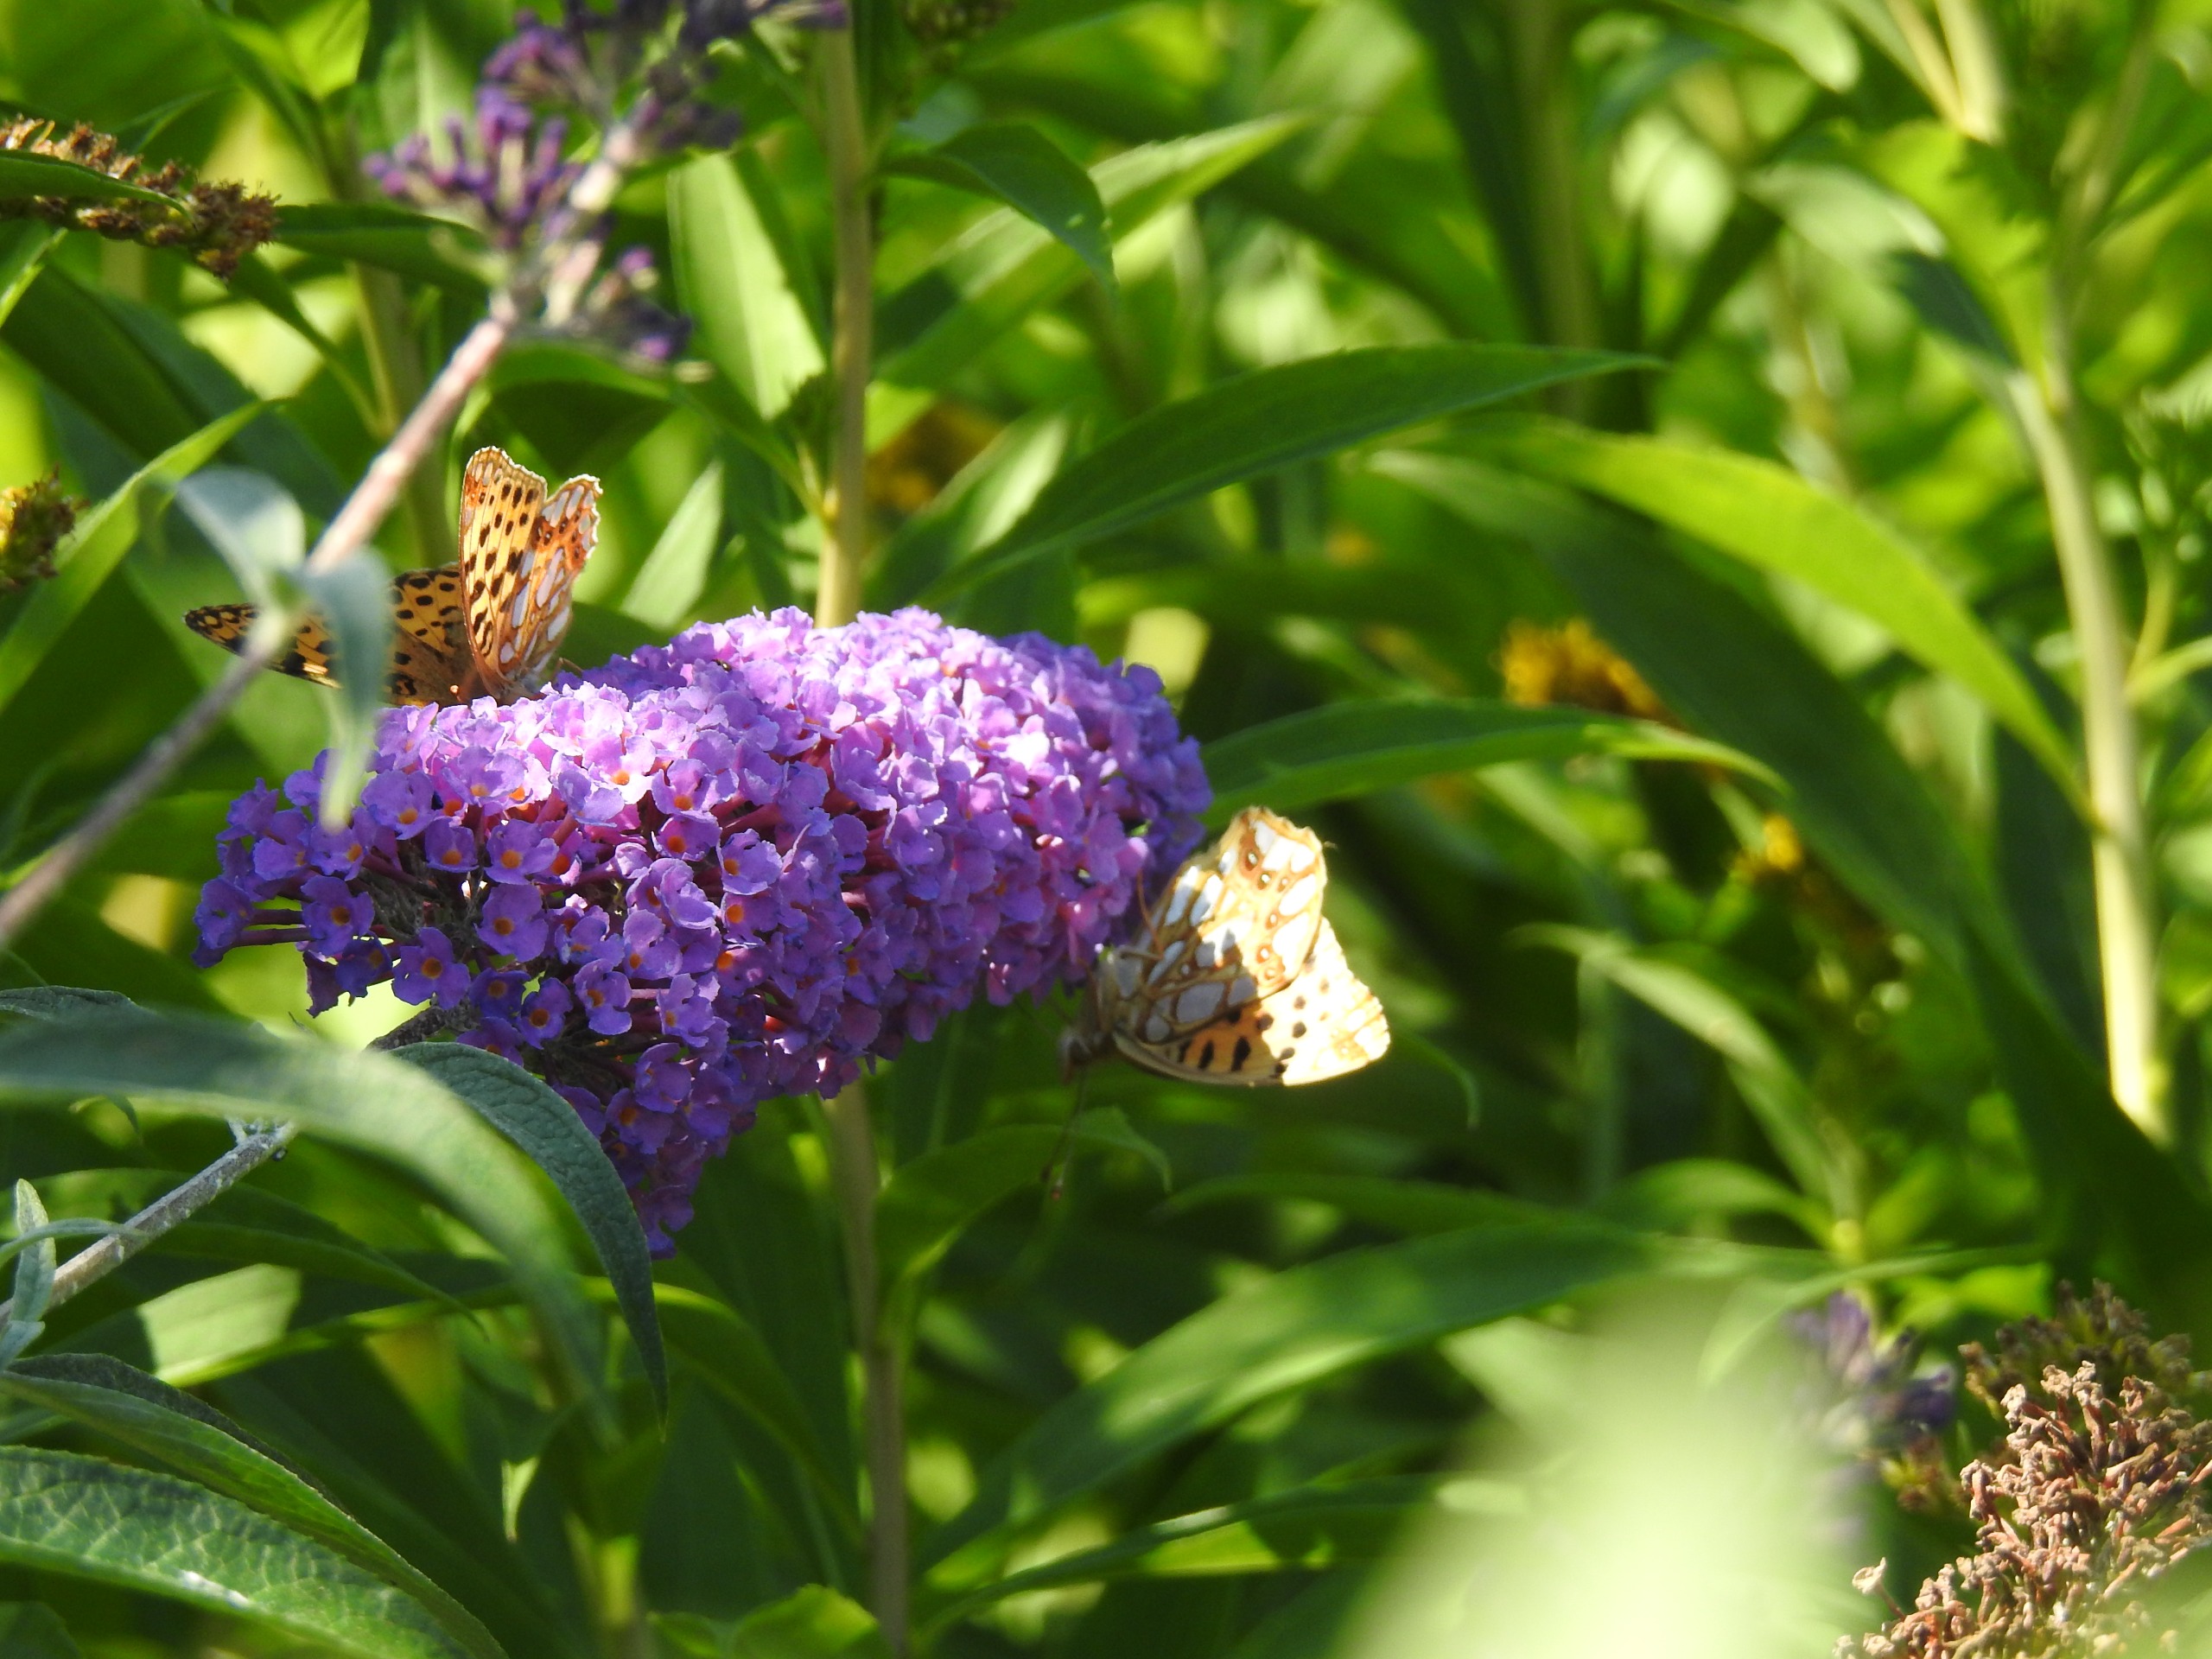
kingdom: Animalia
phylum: Arthropoda
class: Insecta
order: Lepidoptera
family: Nymphalidae
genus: Issoria
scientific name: Issoria lathonia
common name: Storplettet perlemorsommerfugl
